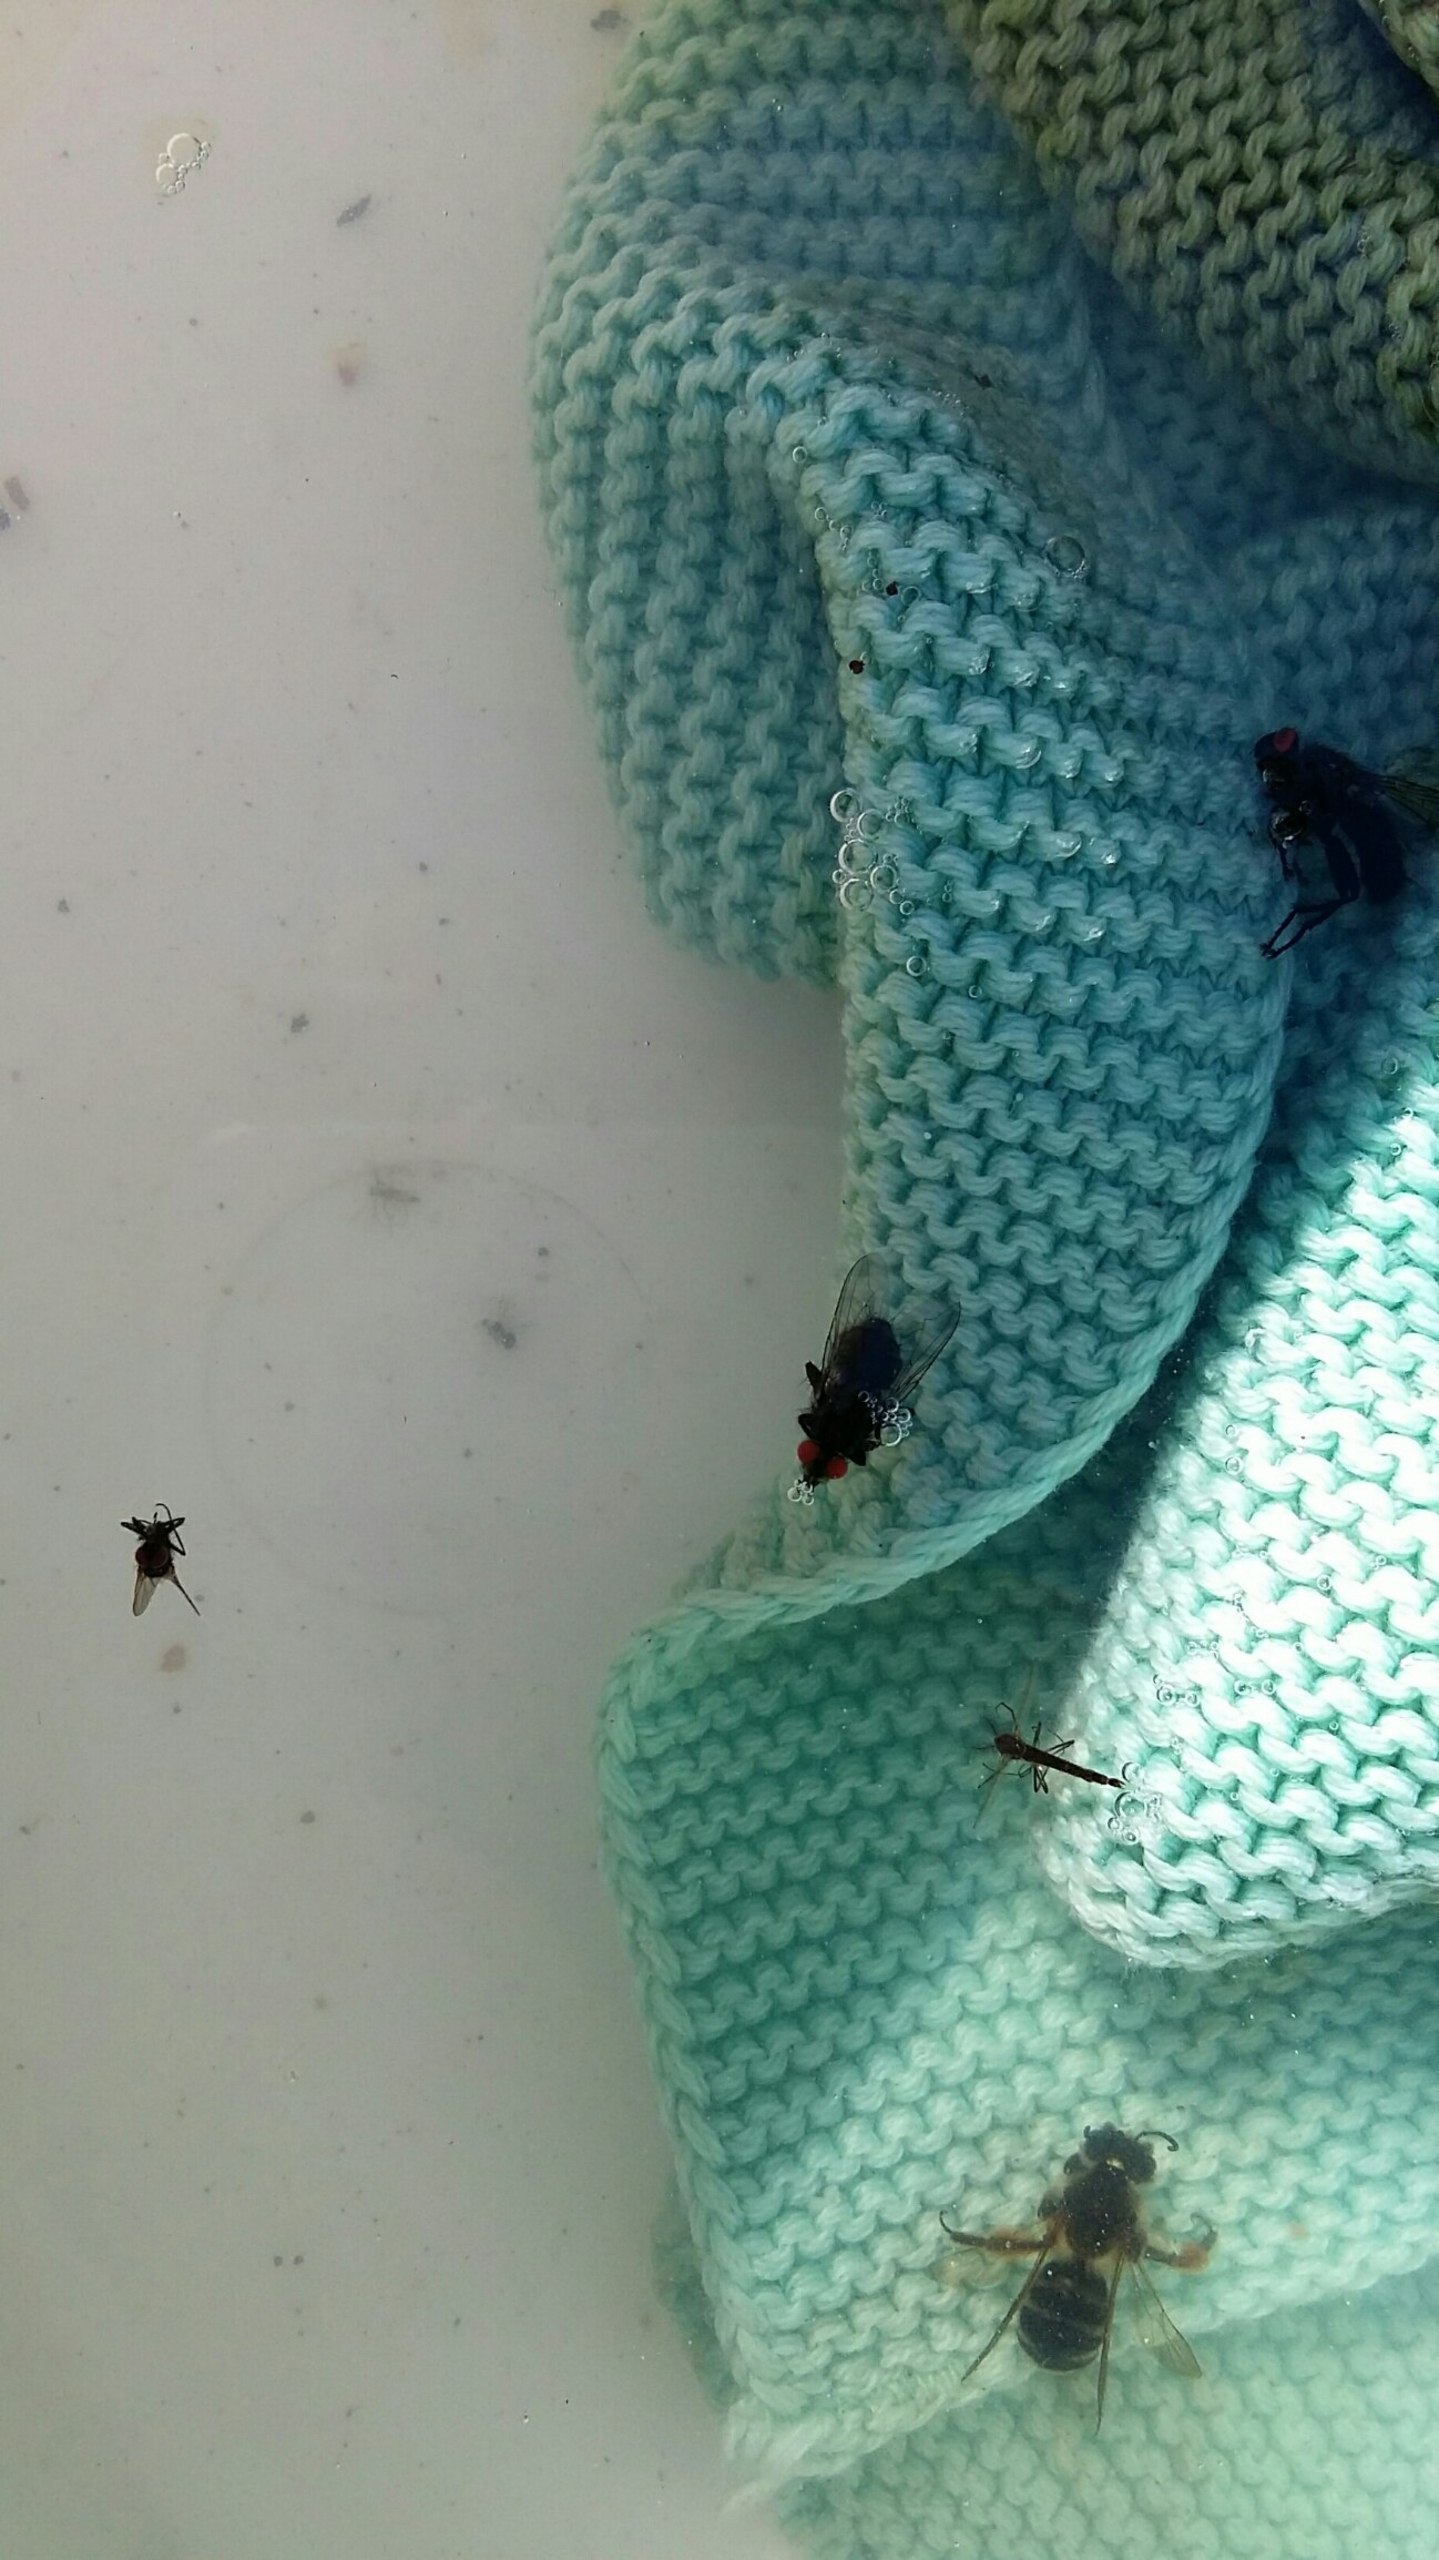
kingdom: Animalia
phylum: Arthropoda
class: Insecta
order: Diptera
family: Sarcophagidae
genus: Sarcophaga
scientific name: Sarcophaga
